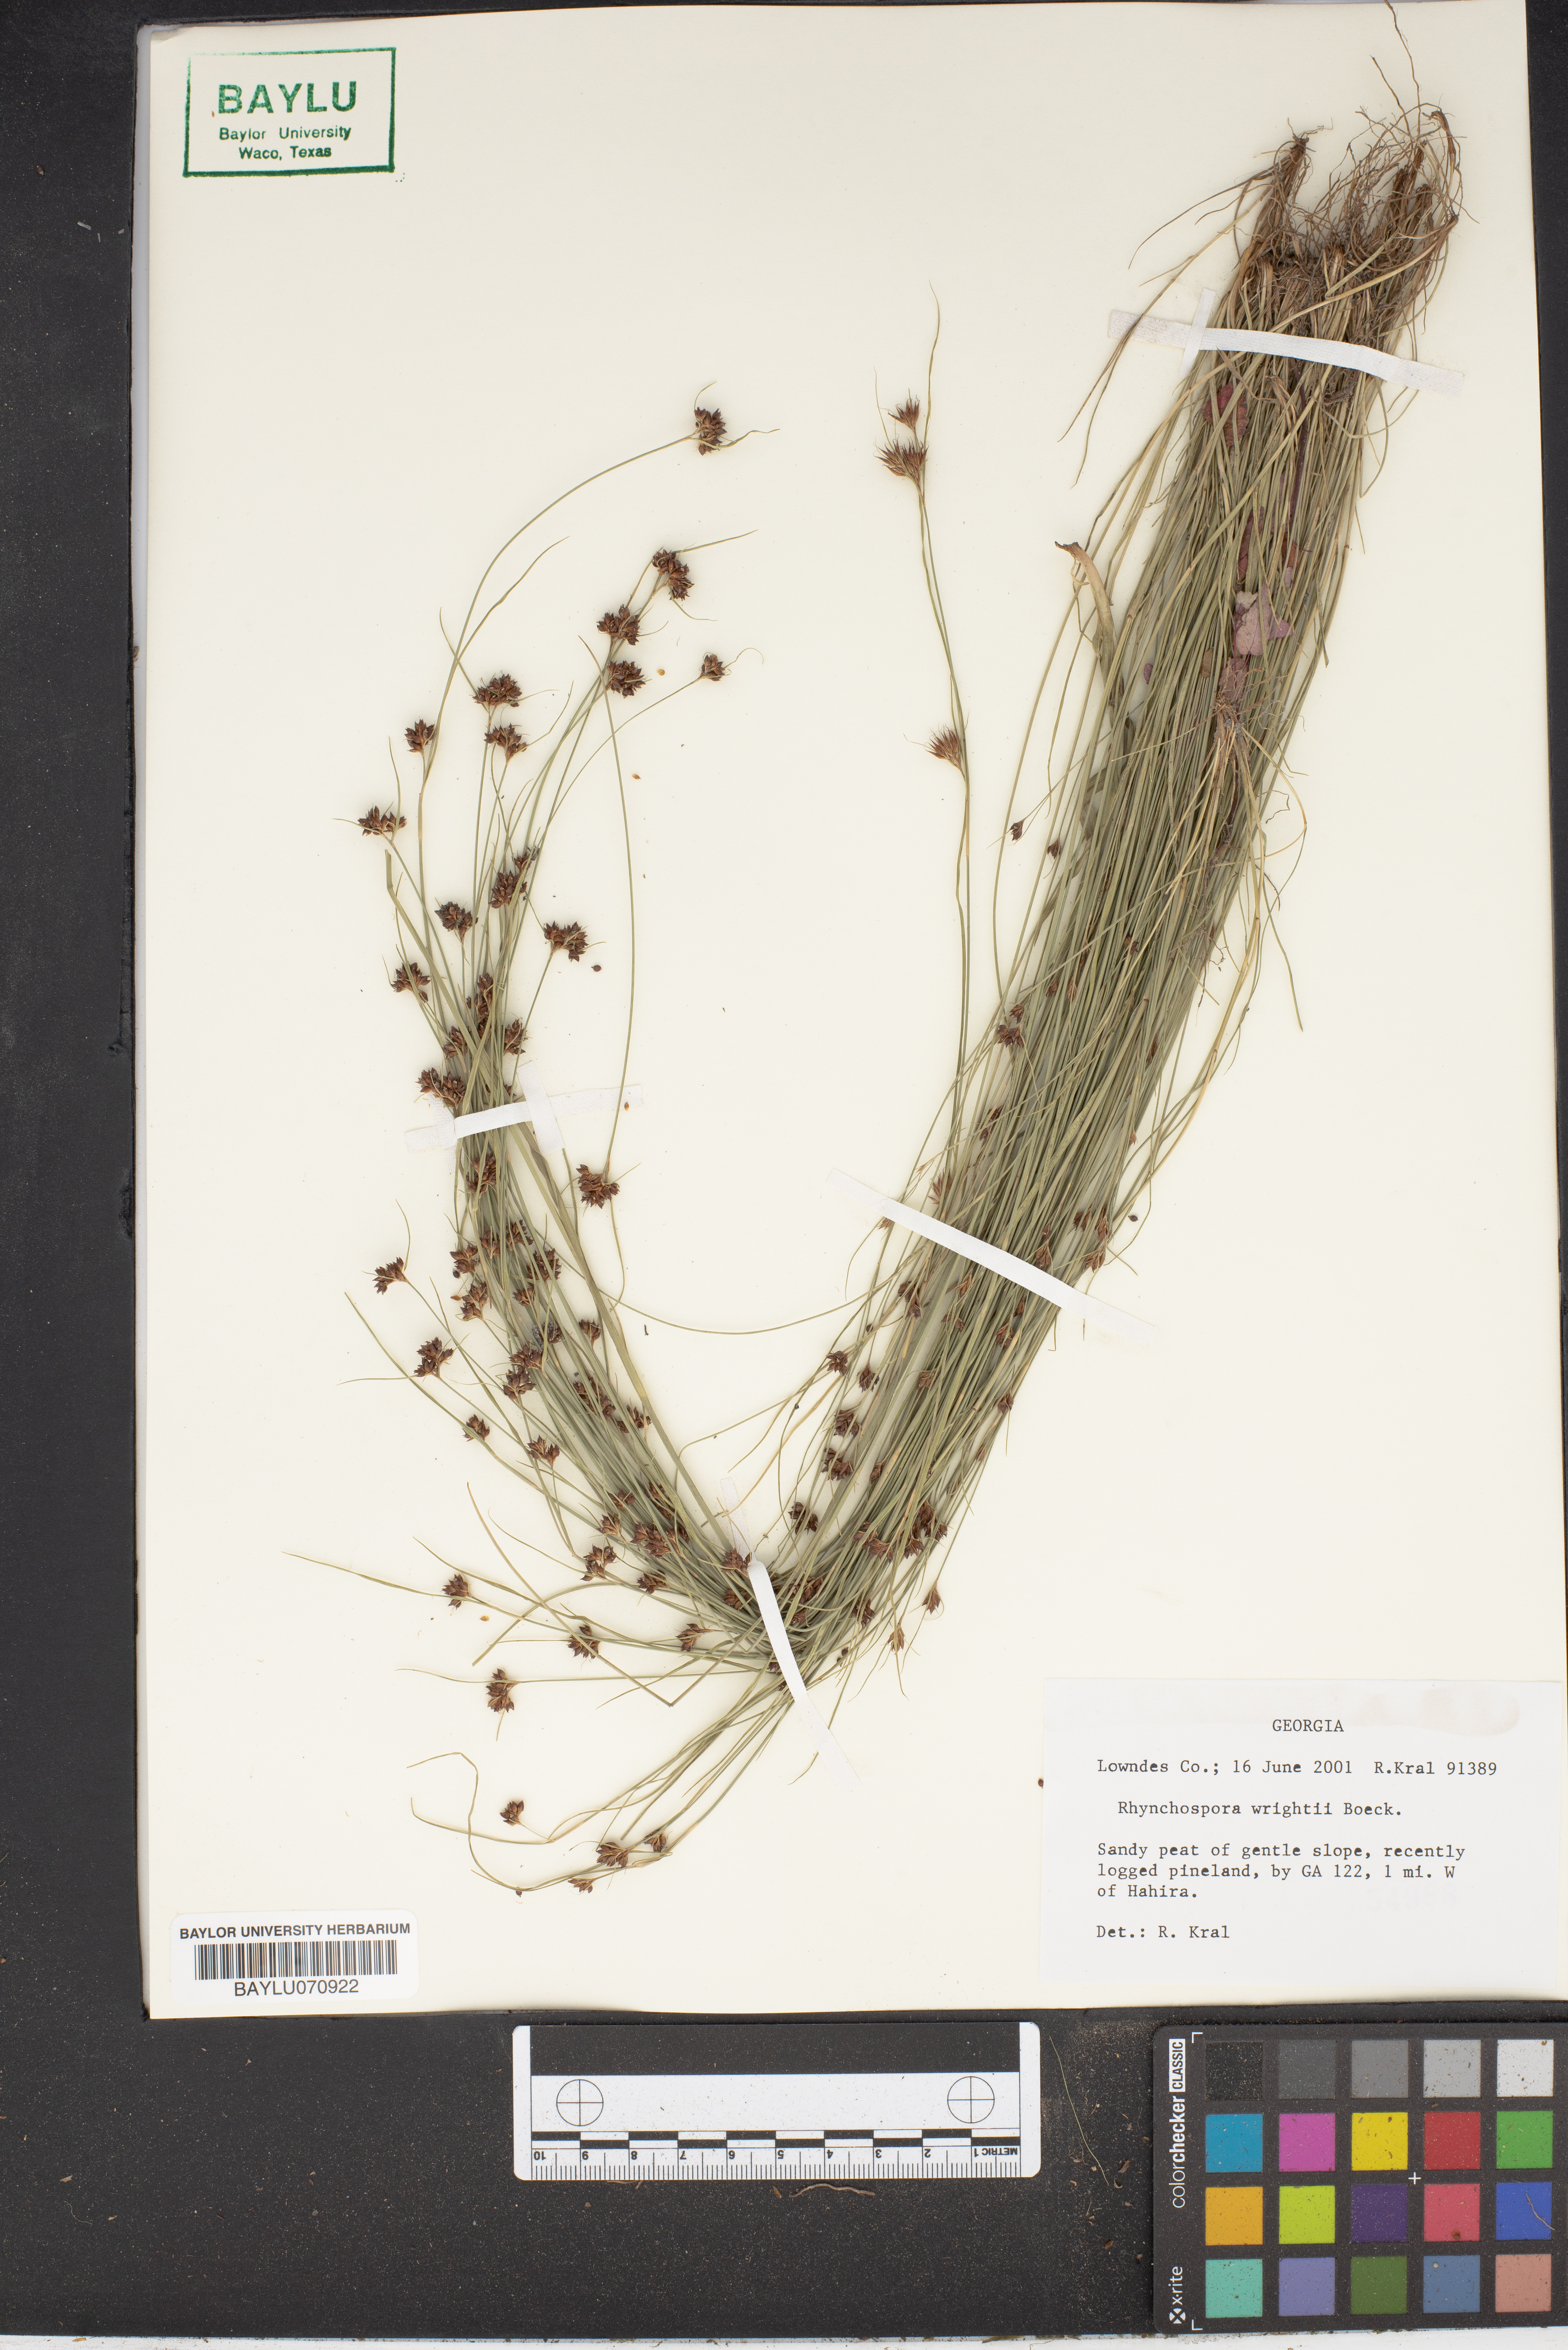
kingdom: Plantae
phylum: Tracheophyta
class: Liliopsida
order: Poales
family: Cyperaceae
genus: Rhynchospora
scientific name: Rhynchospora wrightiana
